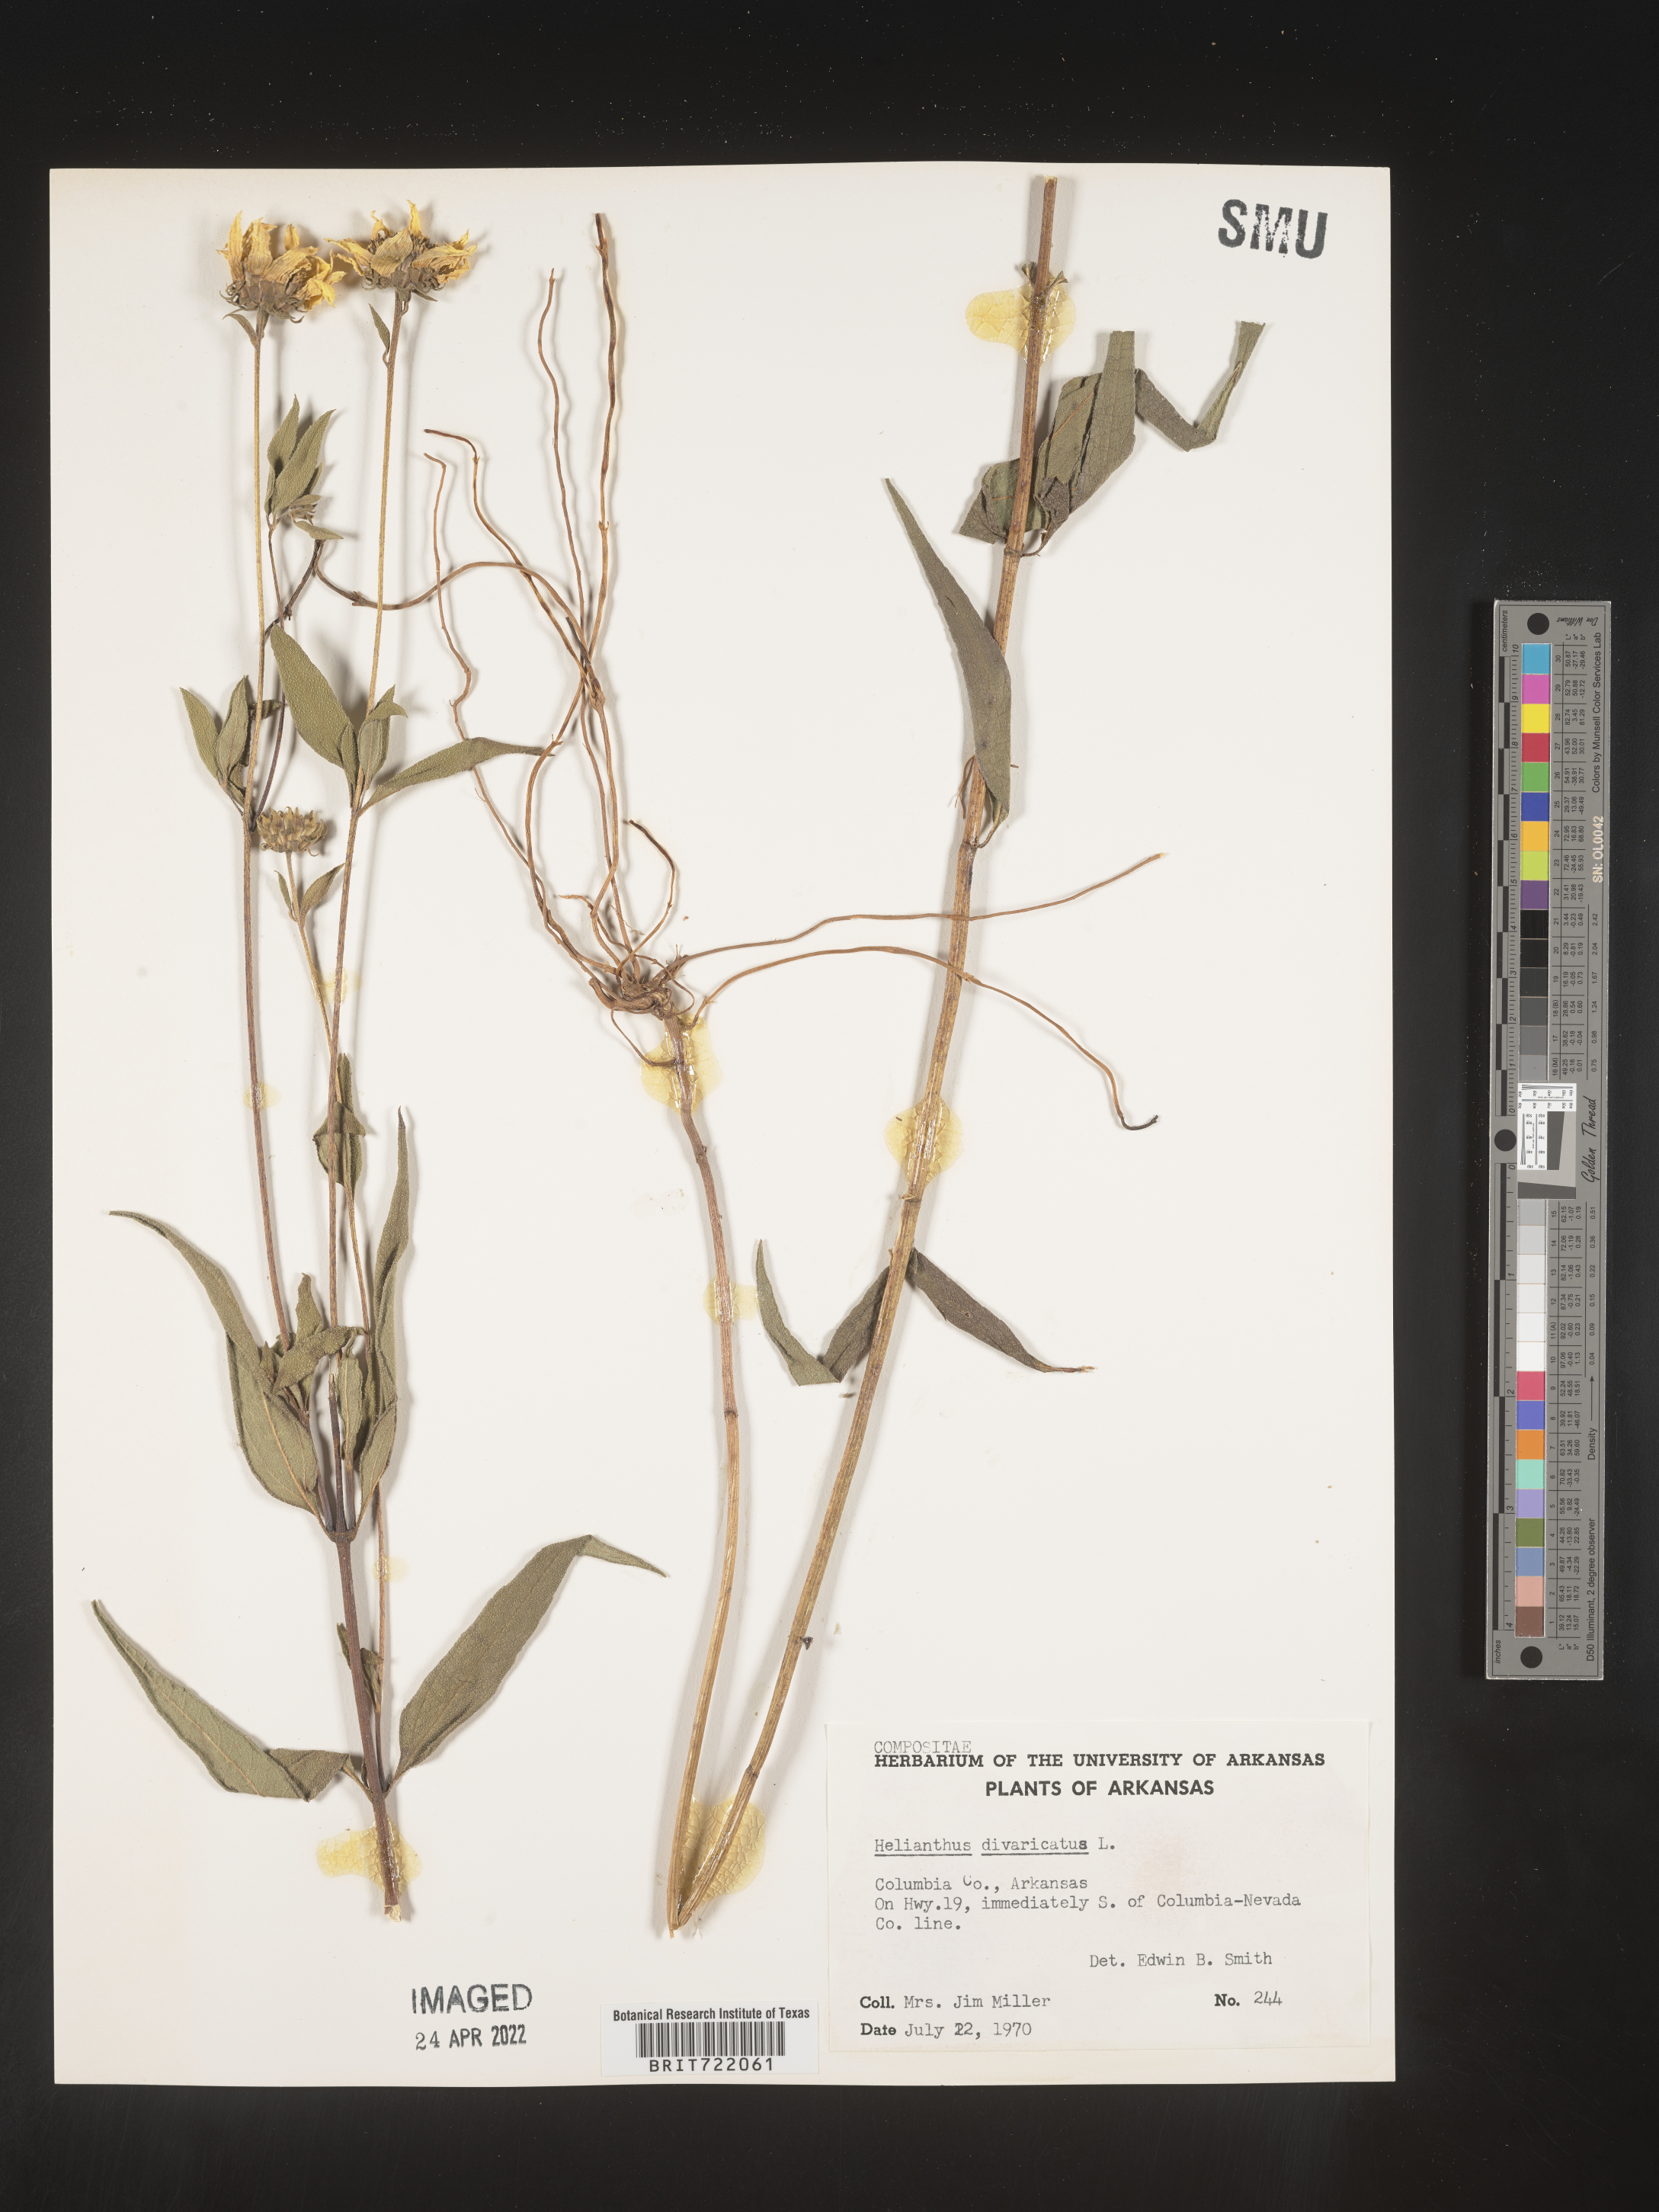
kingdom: Plantae
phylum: Tracheophyta
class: Magnoliopsida
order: Asterales
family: Asteraceae
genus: Helianthus
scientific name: Helianthus divaricatus
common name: Divergent sunflower
